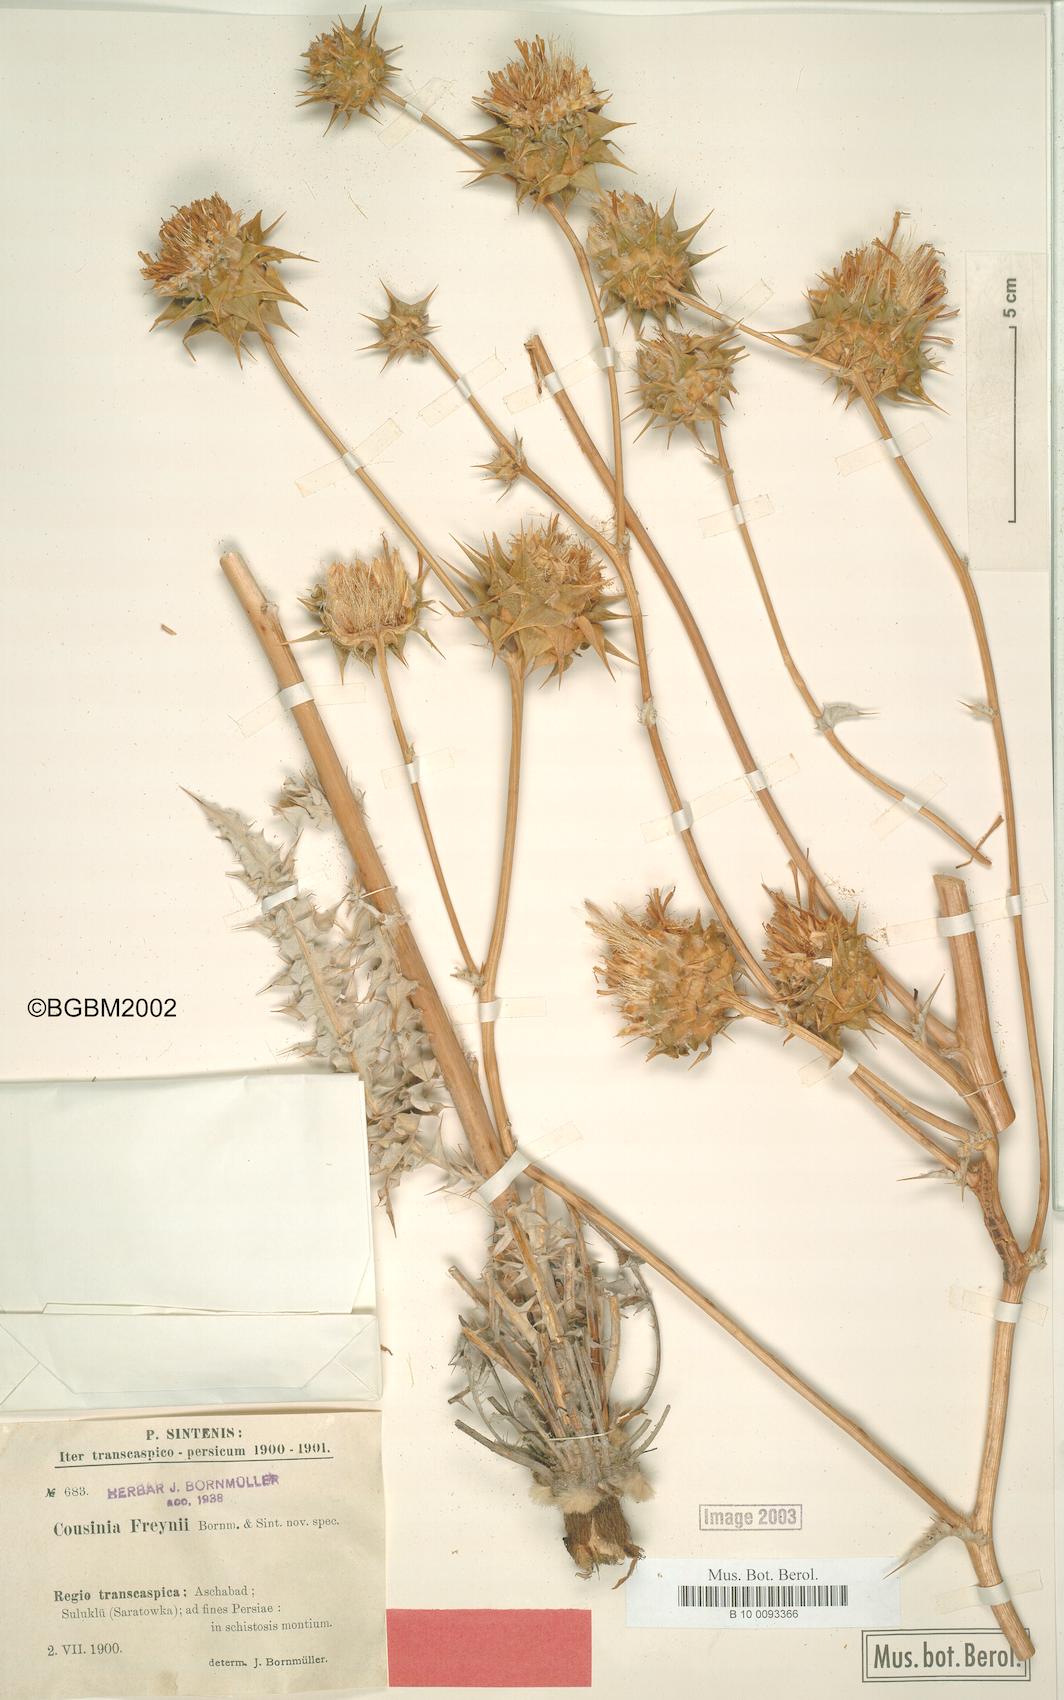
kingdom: Plantae
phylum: Tracheophyta
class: Magnoliopsida
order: Asterales
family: Asteraceae
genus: Cousinia
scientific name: Cousinia freynii
